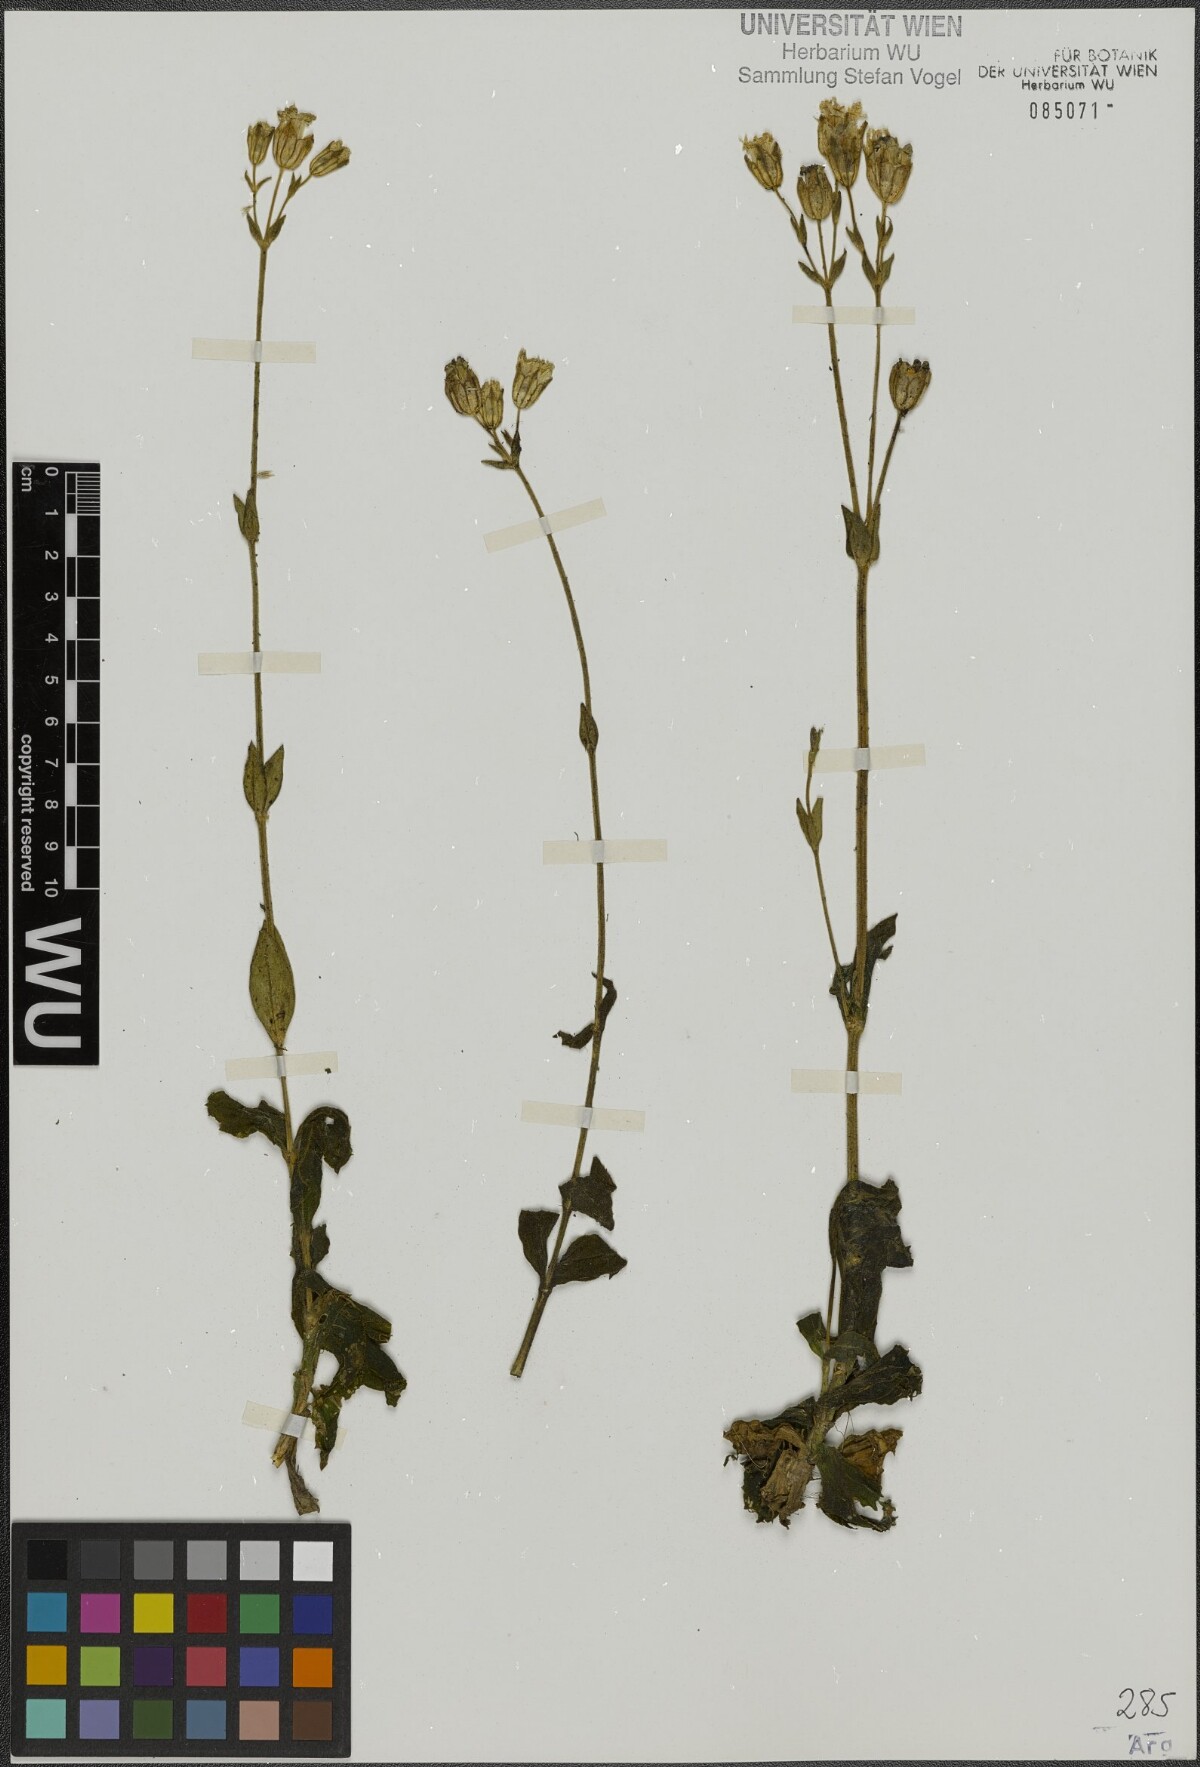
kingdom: Plantae
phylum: Tracheophyta
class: Magnoliopsida
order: Caryophyllales
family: Caryophyllaceae
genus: Silene
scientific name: Silene argentina
